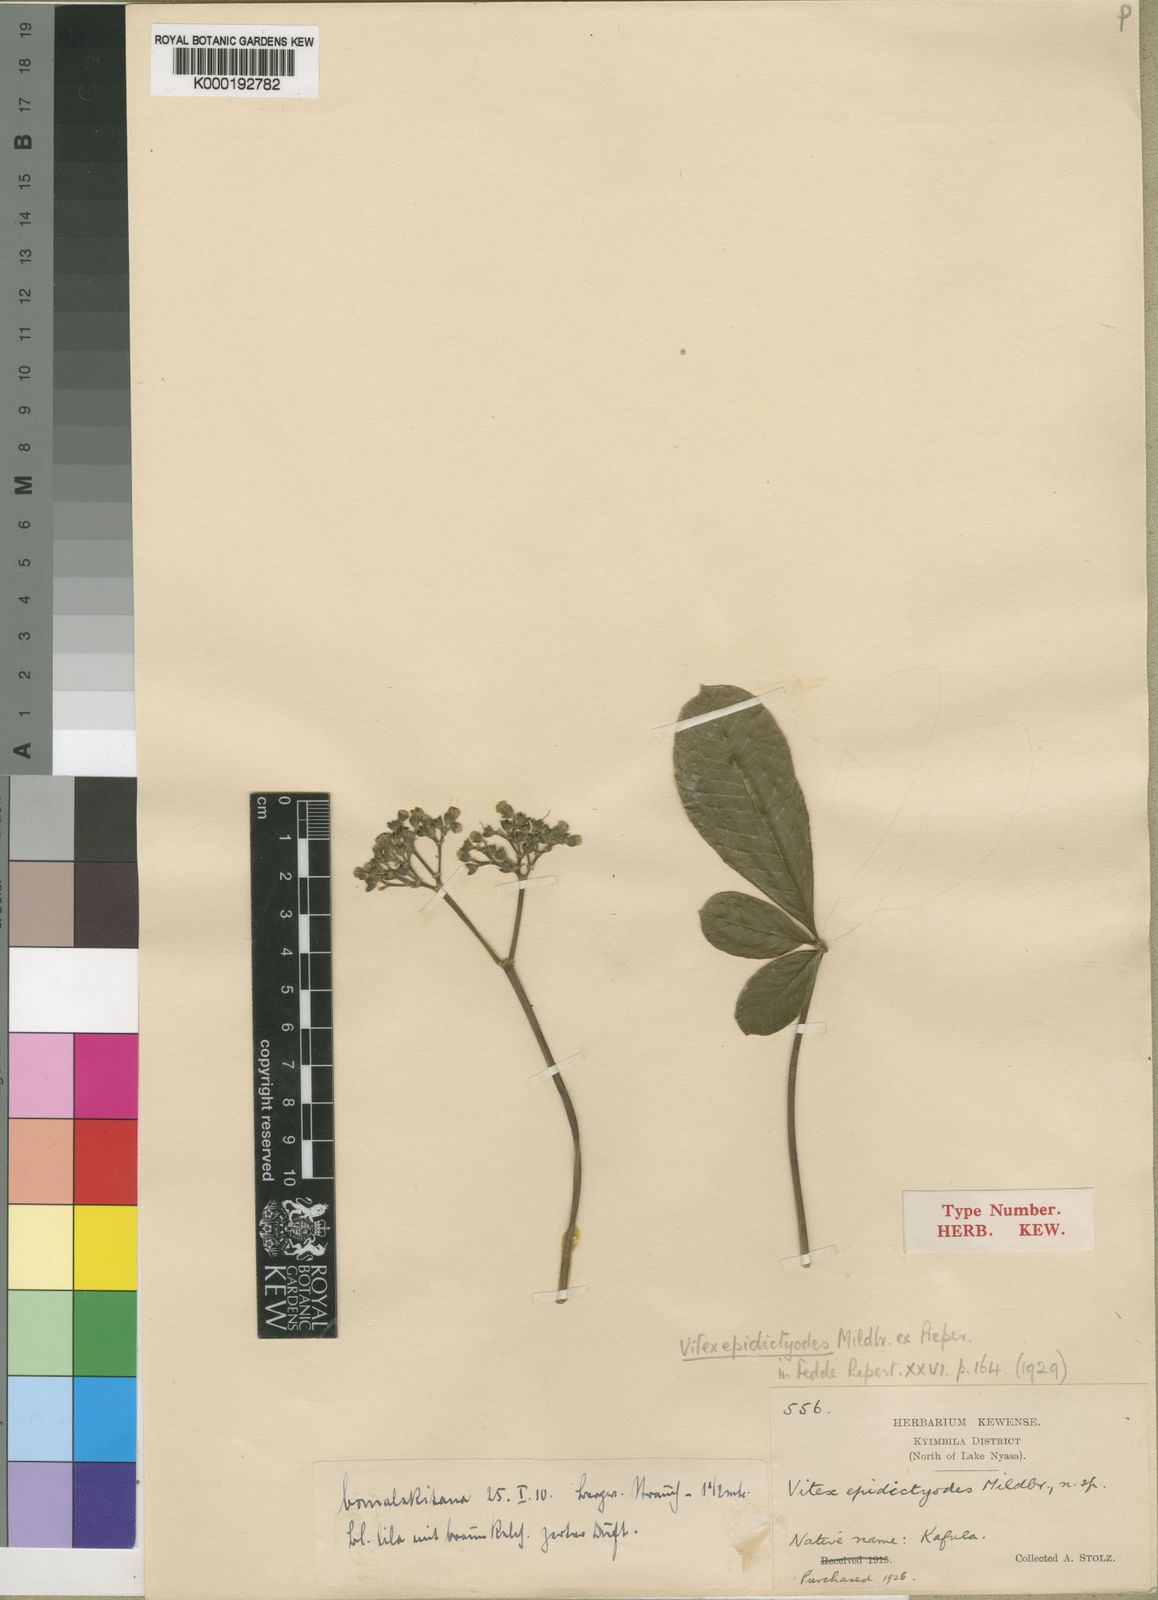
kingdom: Plantae
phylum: Tracheophyta
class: Magnoliopsida
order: Lamiales
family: Lamiaceae
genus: Vitex
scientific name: Vitex madiensis
